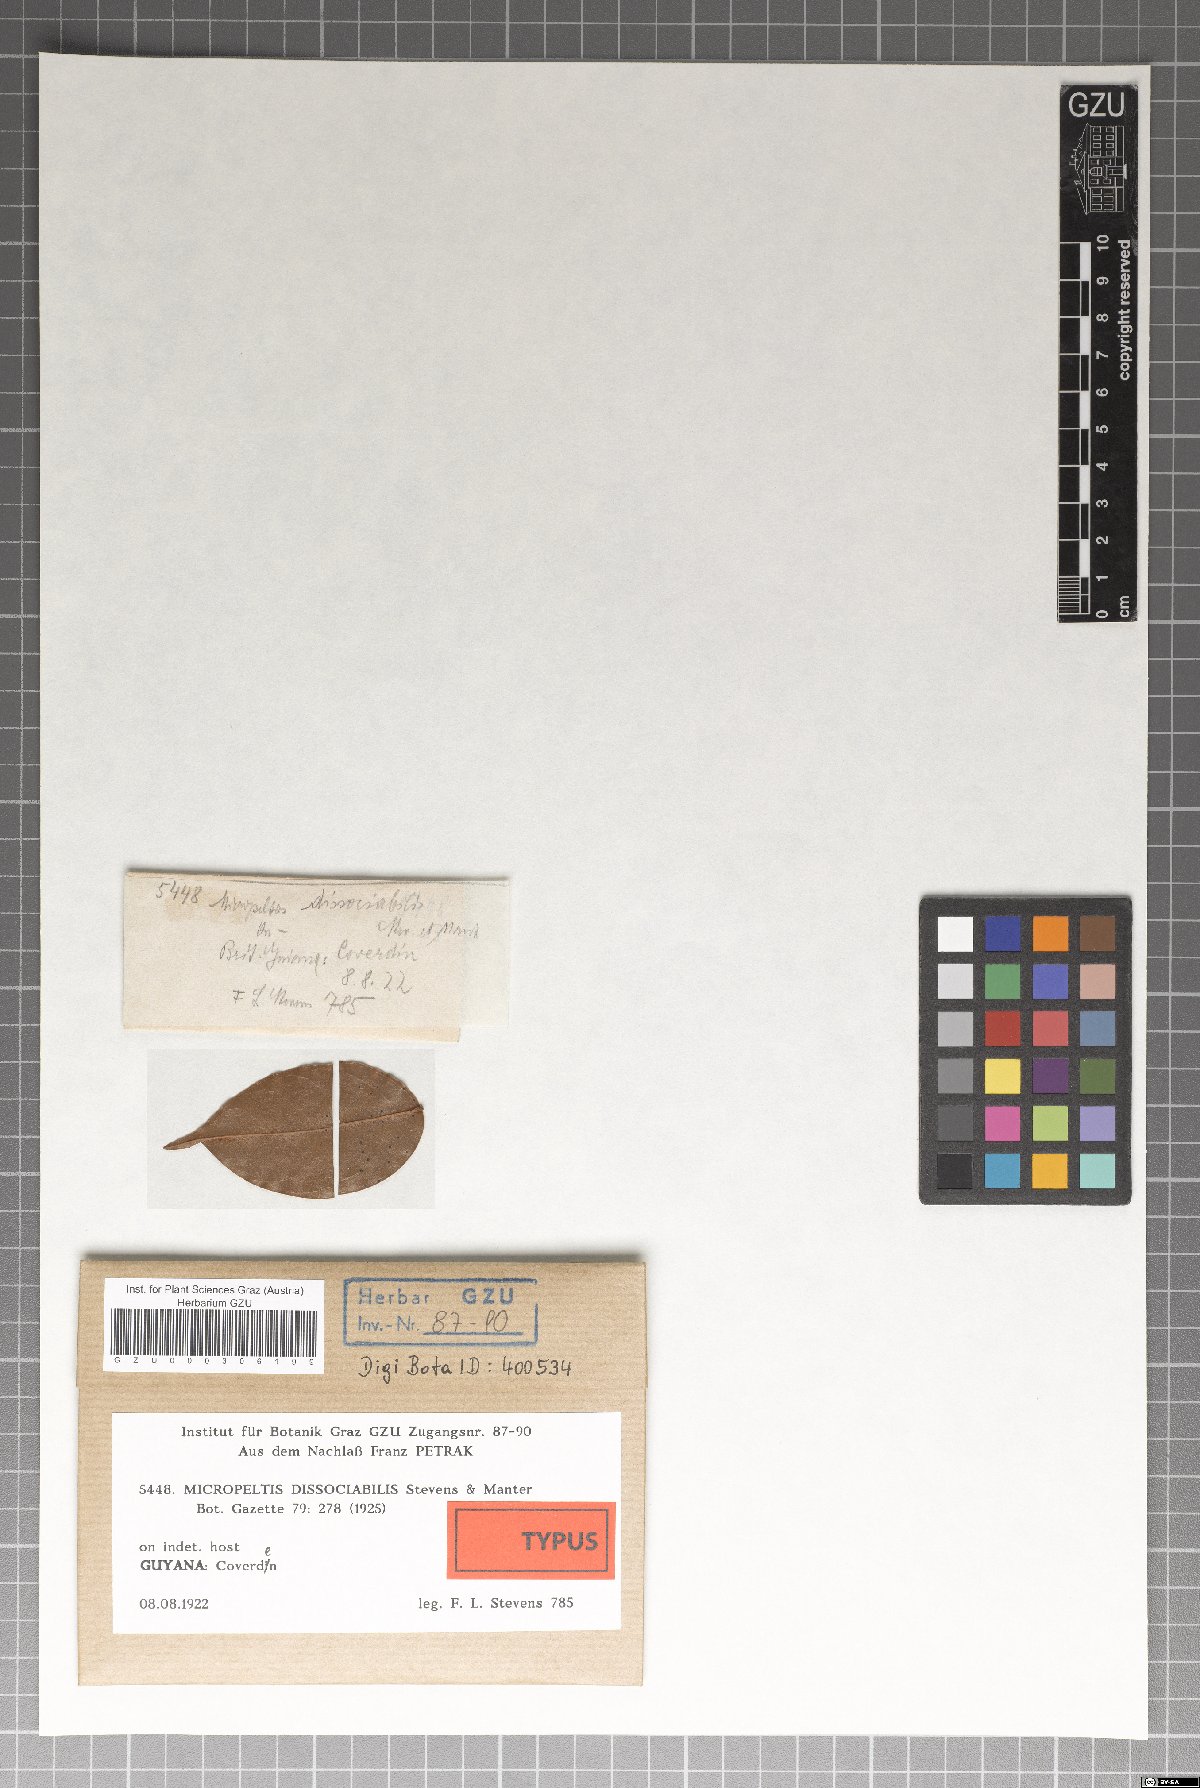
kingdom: Fungi
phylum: Ascomycota
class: Dothideomycetes
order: Microthyriales
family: Micropeltidaceae
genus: Micropeltis
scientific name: Micropeltis dissociabilis
